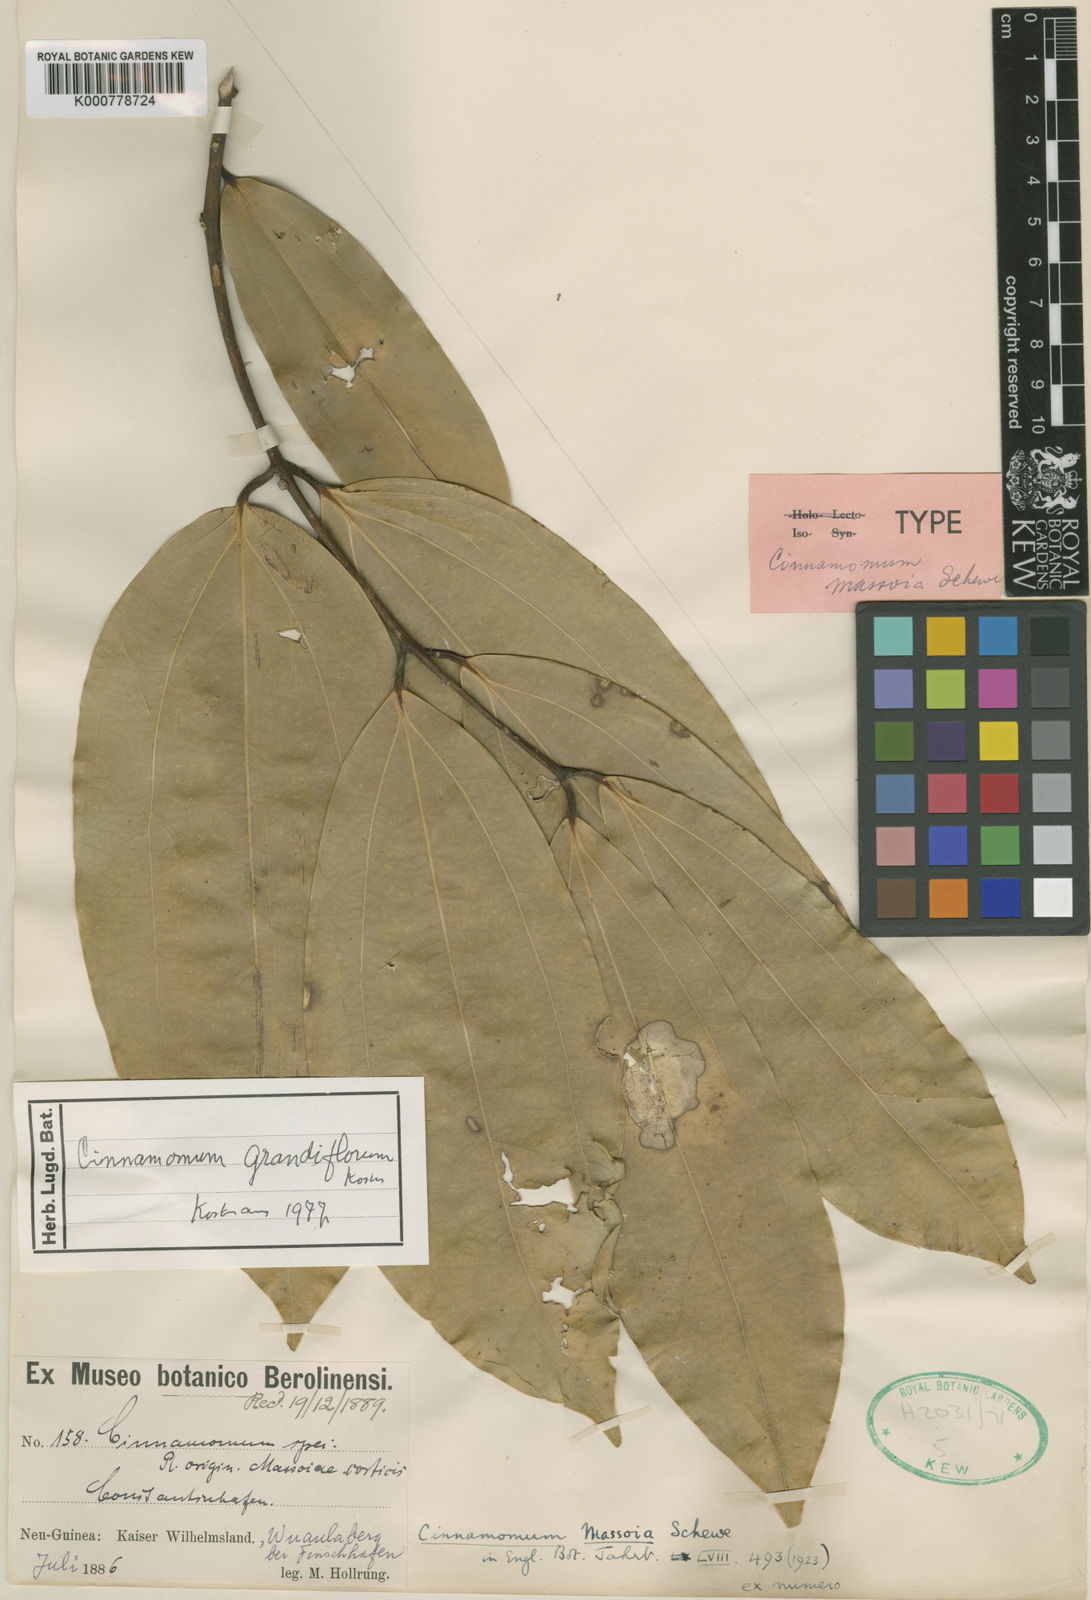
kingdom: Plantae
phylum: Tracheophyta
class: Magnoliopsida
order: Laurales
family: Lauraceae
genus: Cinnamomum
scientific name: Cinnamomum grandiflorum
